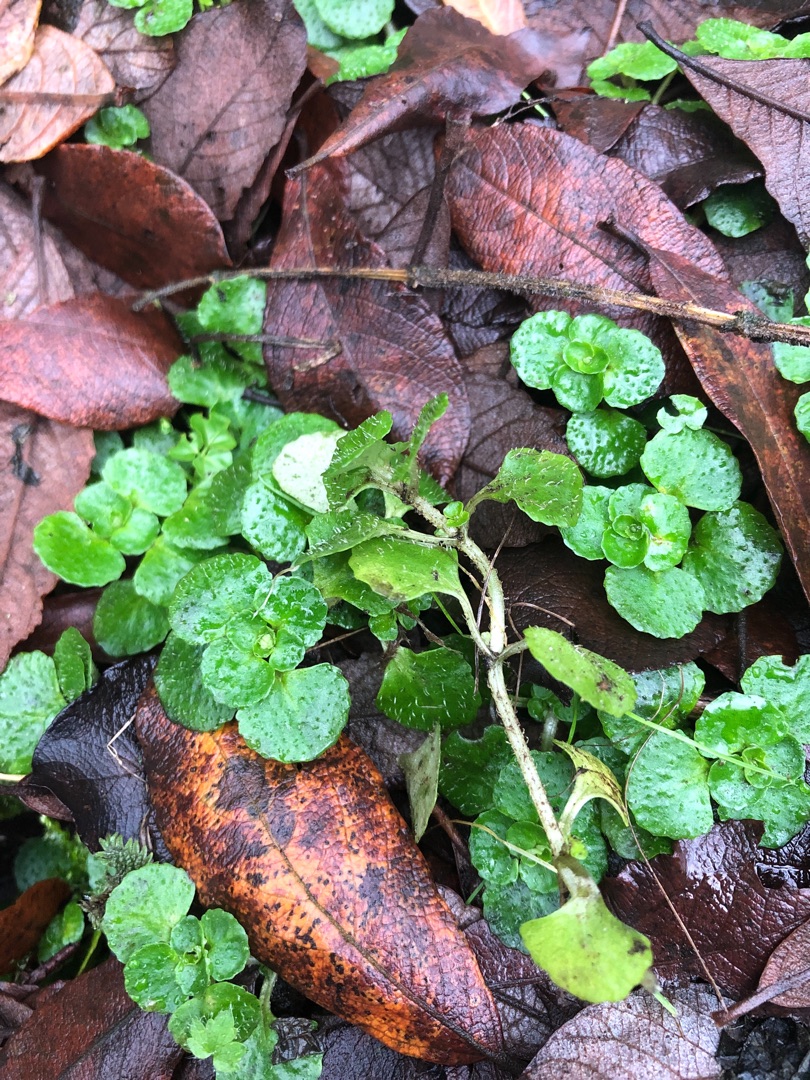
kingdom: Plantae
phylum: Tracheophyta
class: Magnoliopsida
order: Saxifragales
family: Saxifragaceae
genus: Chrysosplenium
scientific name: Chrysosplenium oppositifolium
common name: Småbladet milturt
